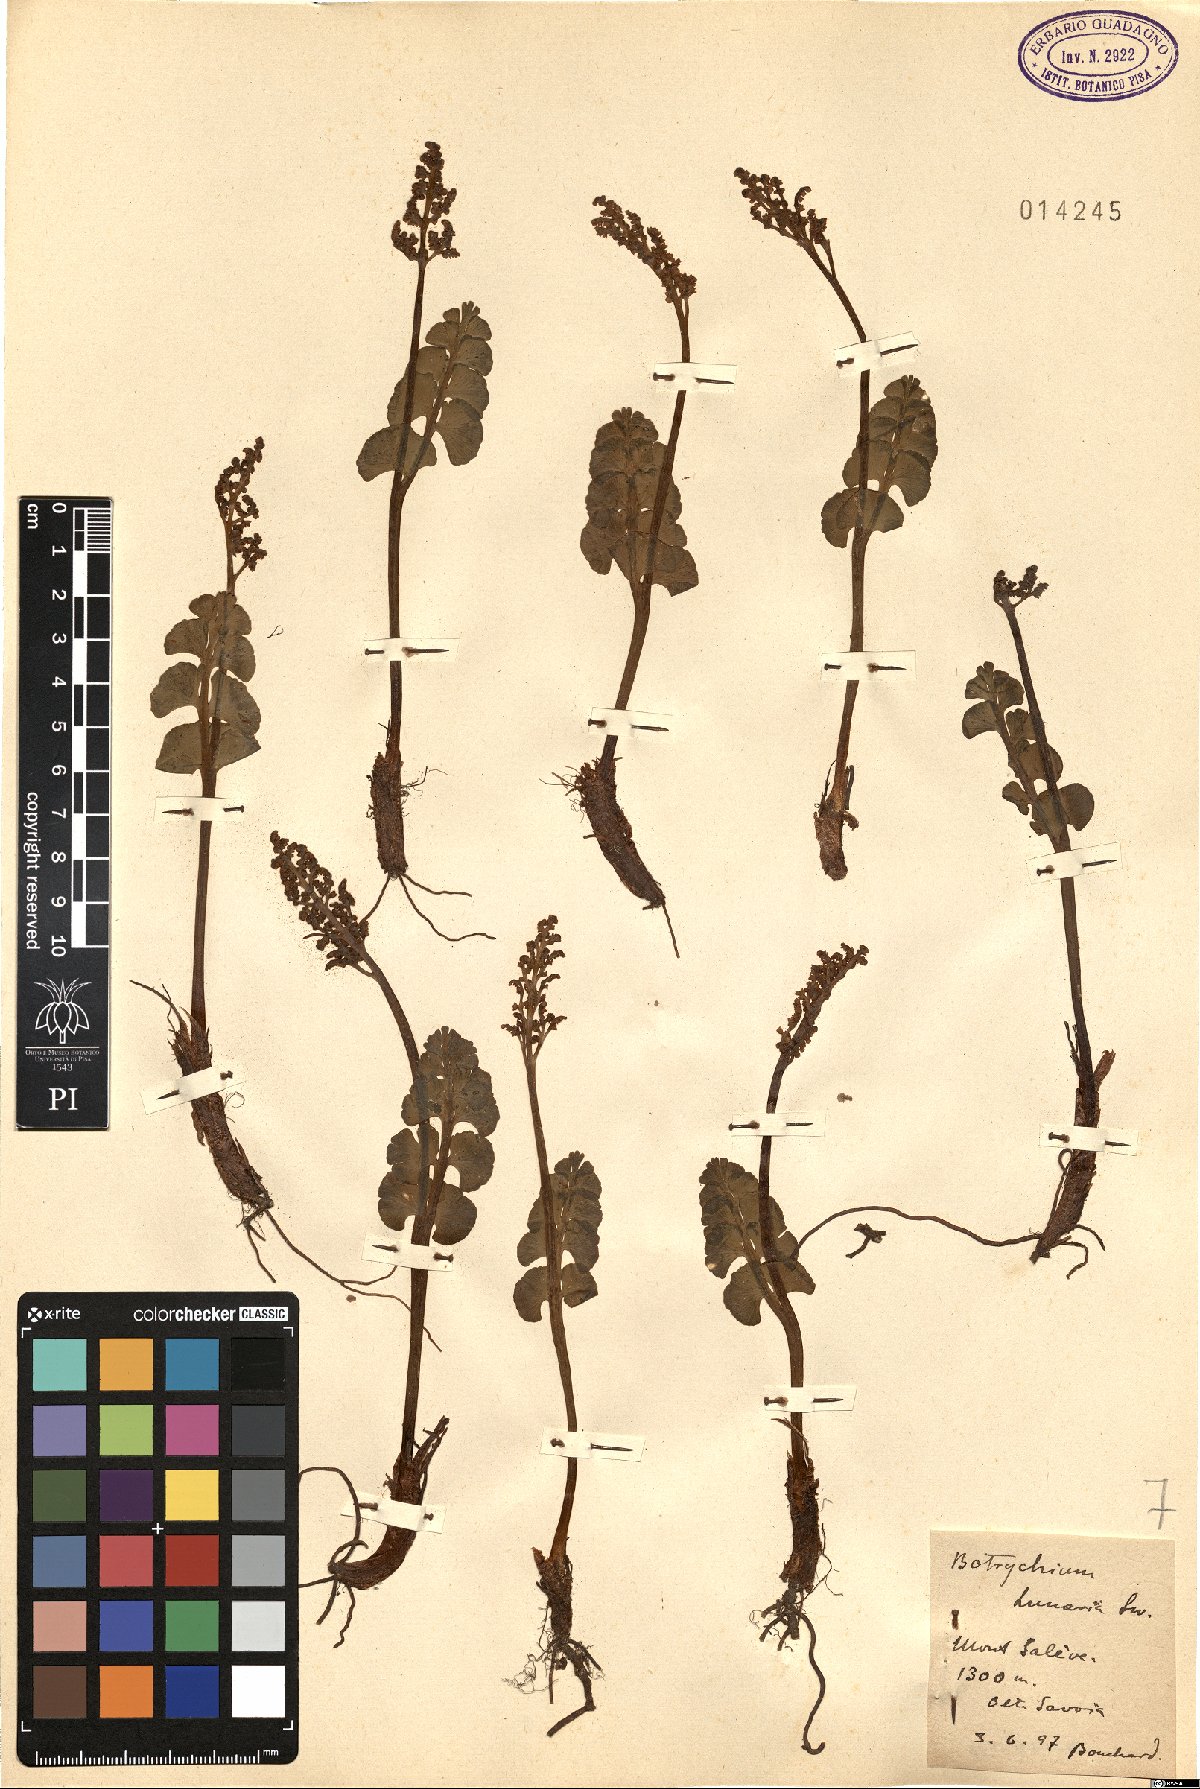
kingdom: Plantae
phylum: Tracheophyta
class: Polypodiopsida
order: Ophioglossales
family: Ophioglossaceae
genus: Botrychium
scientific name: Botrychium lunaria
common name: Moonwort
